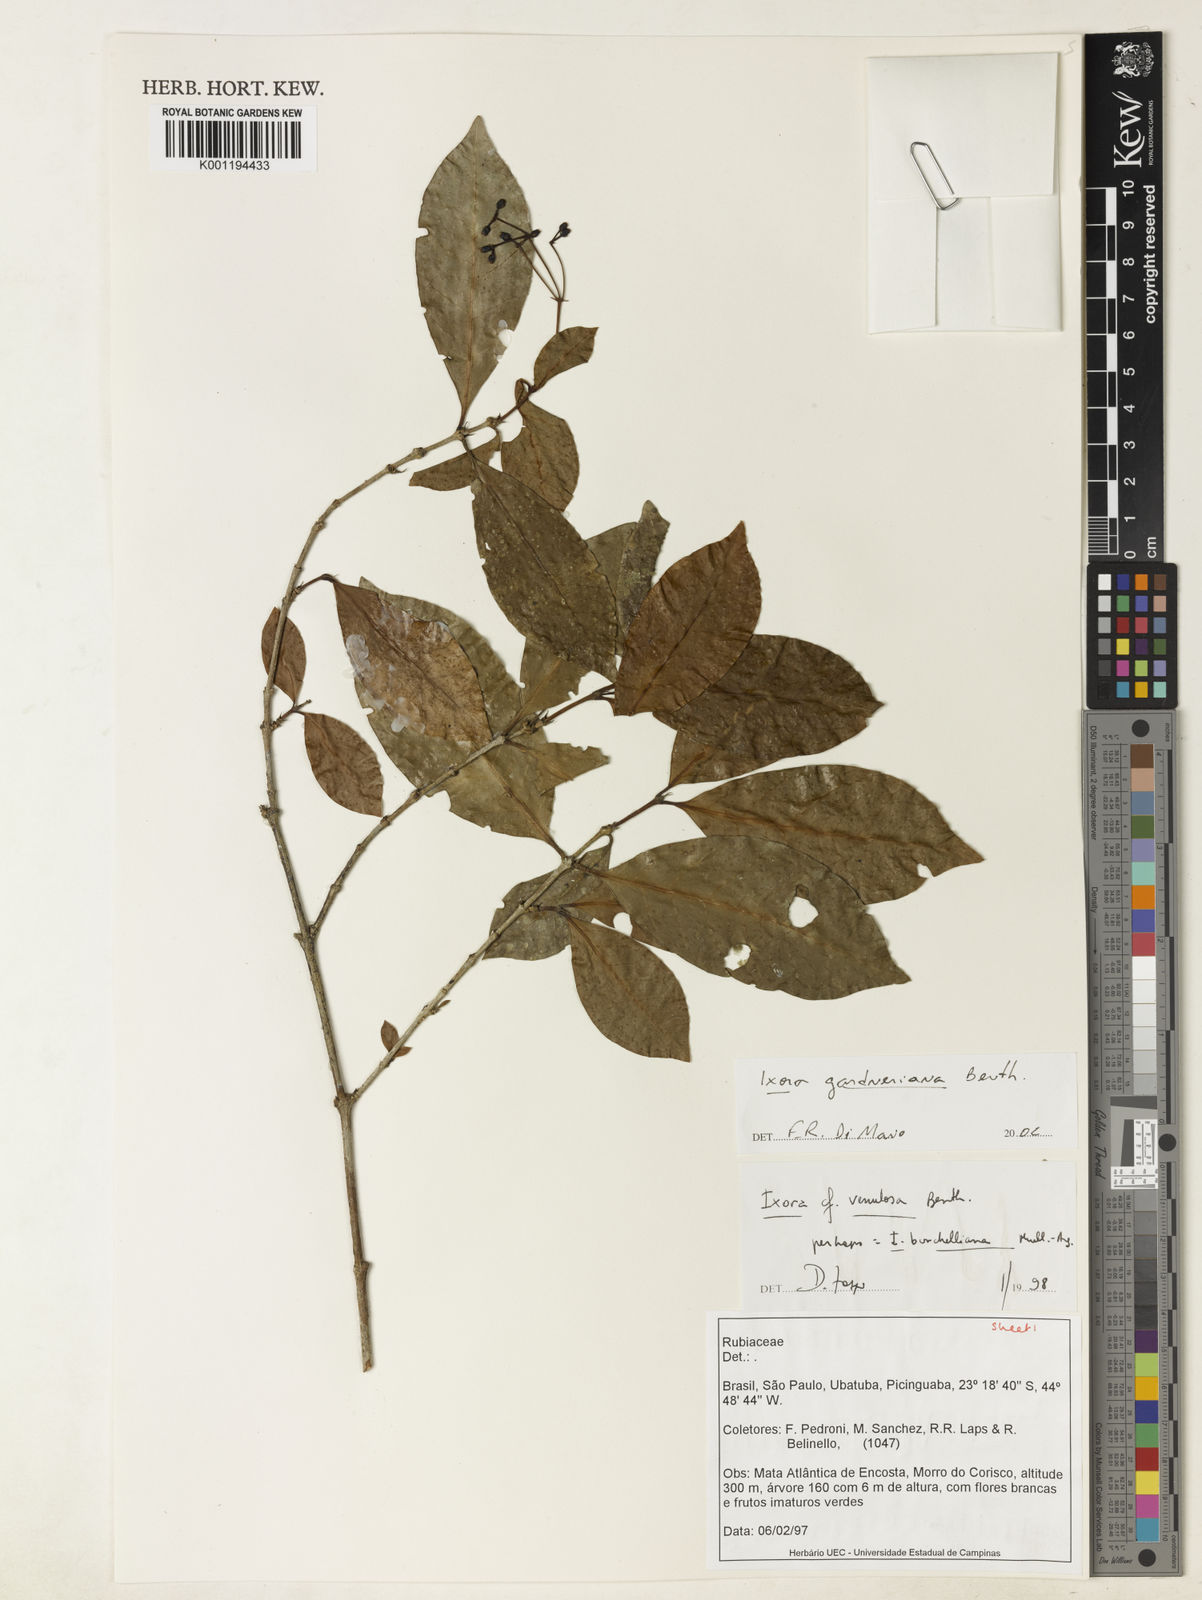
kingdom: Plantae
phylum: Tracheophyta
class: Magnoliopsida
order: Gentianales
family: Rubiaceae
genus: Ixora
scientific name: Ixora gardneriana
